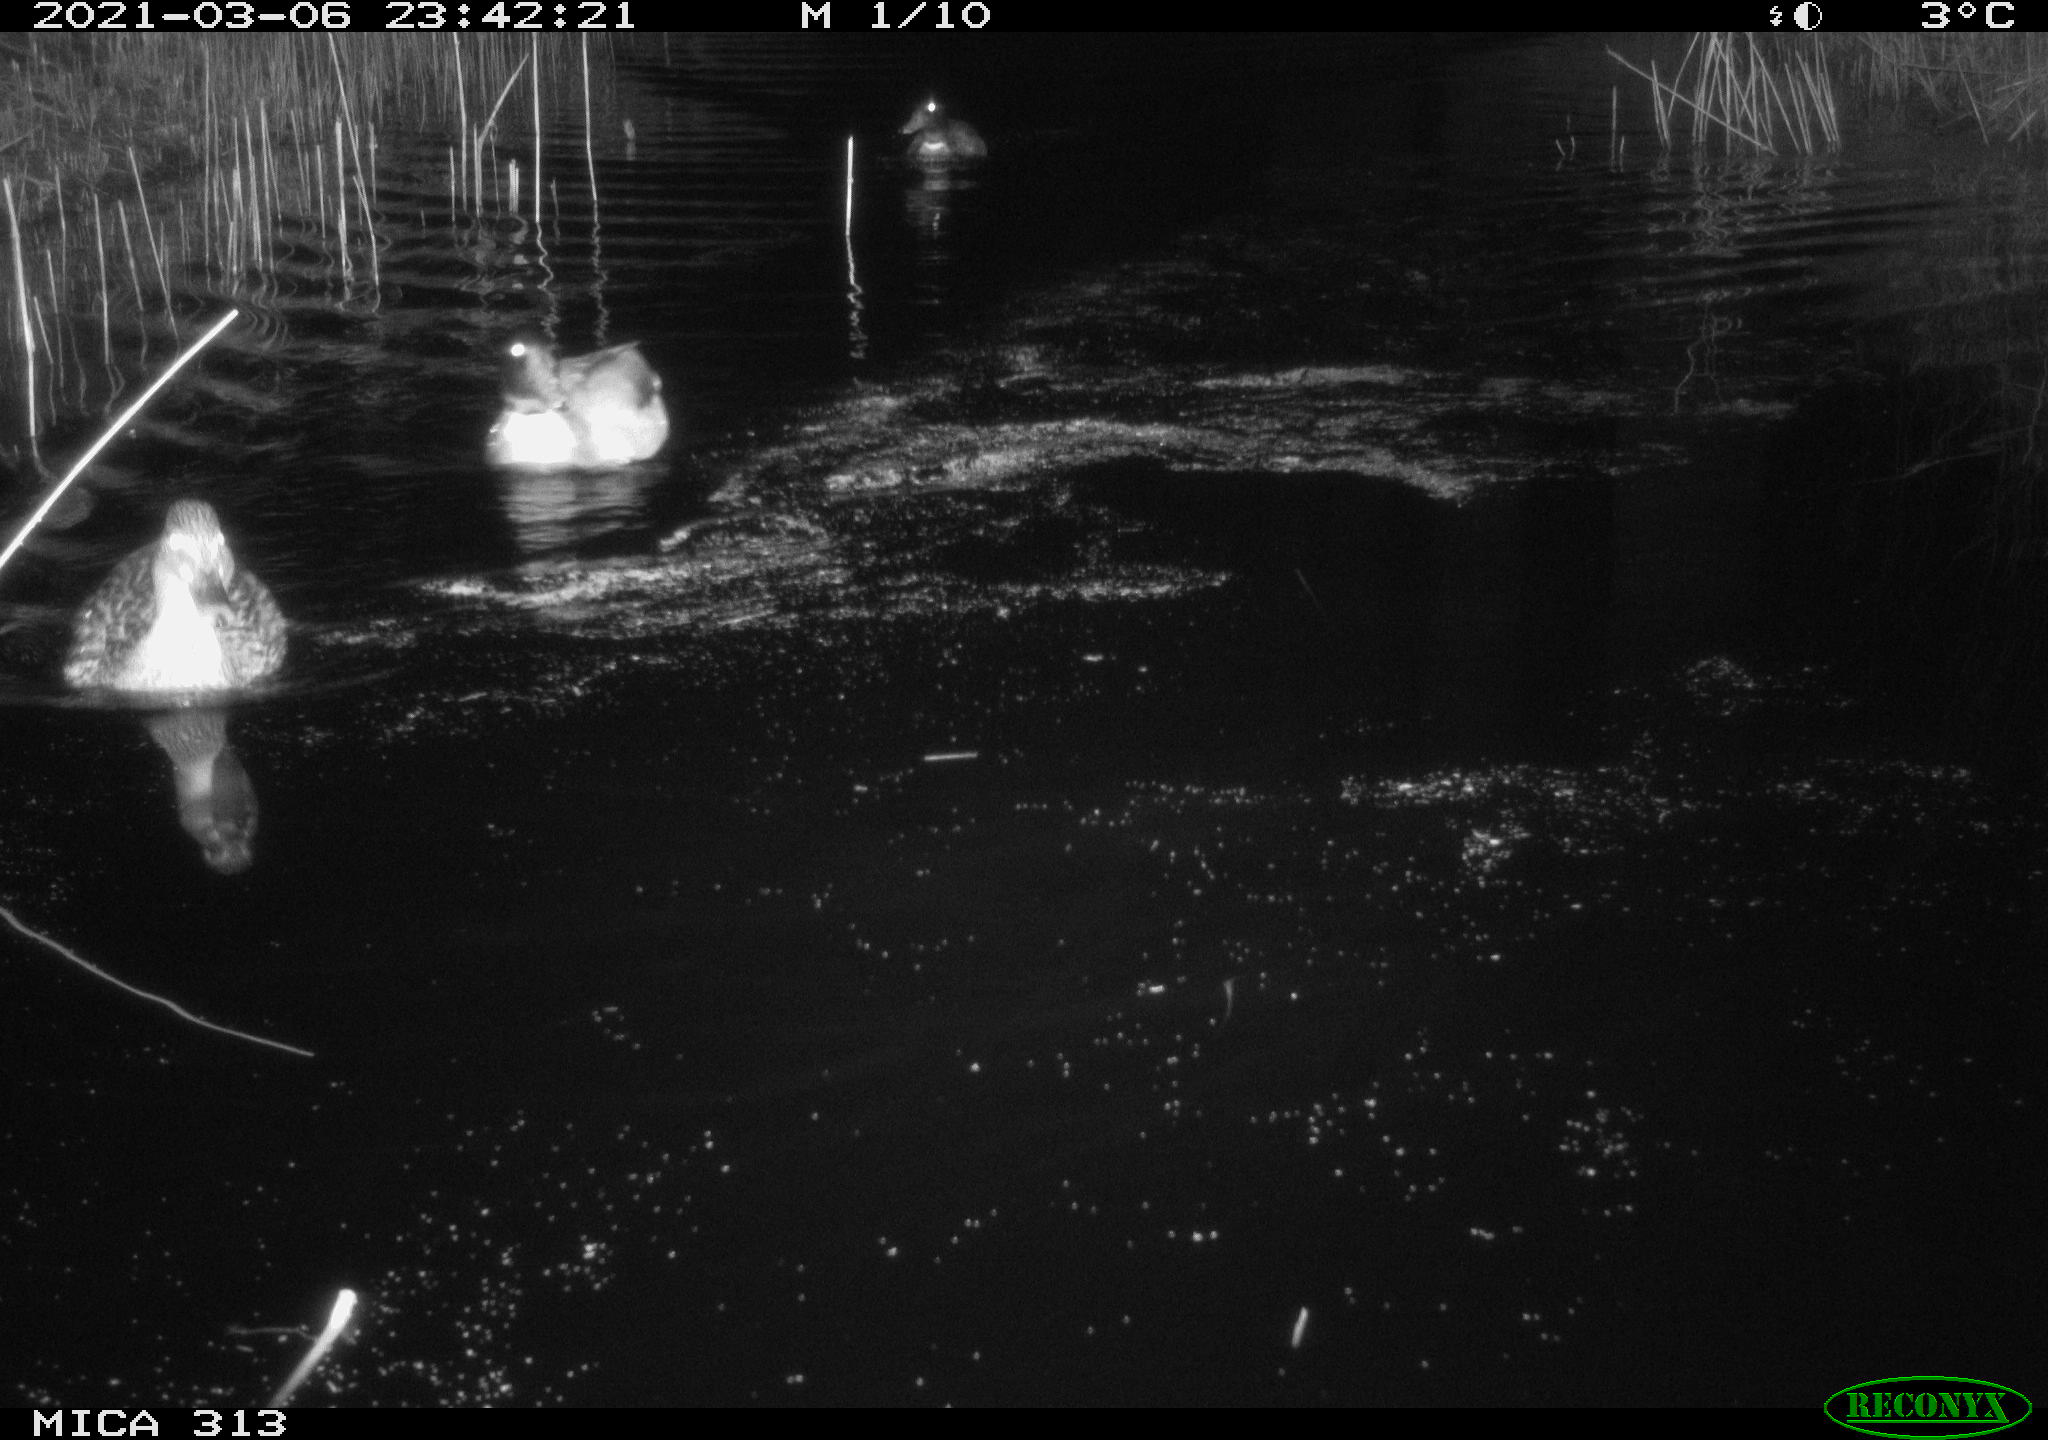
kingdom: Animalia
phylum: Chordata
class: Aves
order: Anseriformes
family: Anatidae
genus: Mareca
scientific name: Mareca strepera
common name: Gadwall
